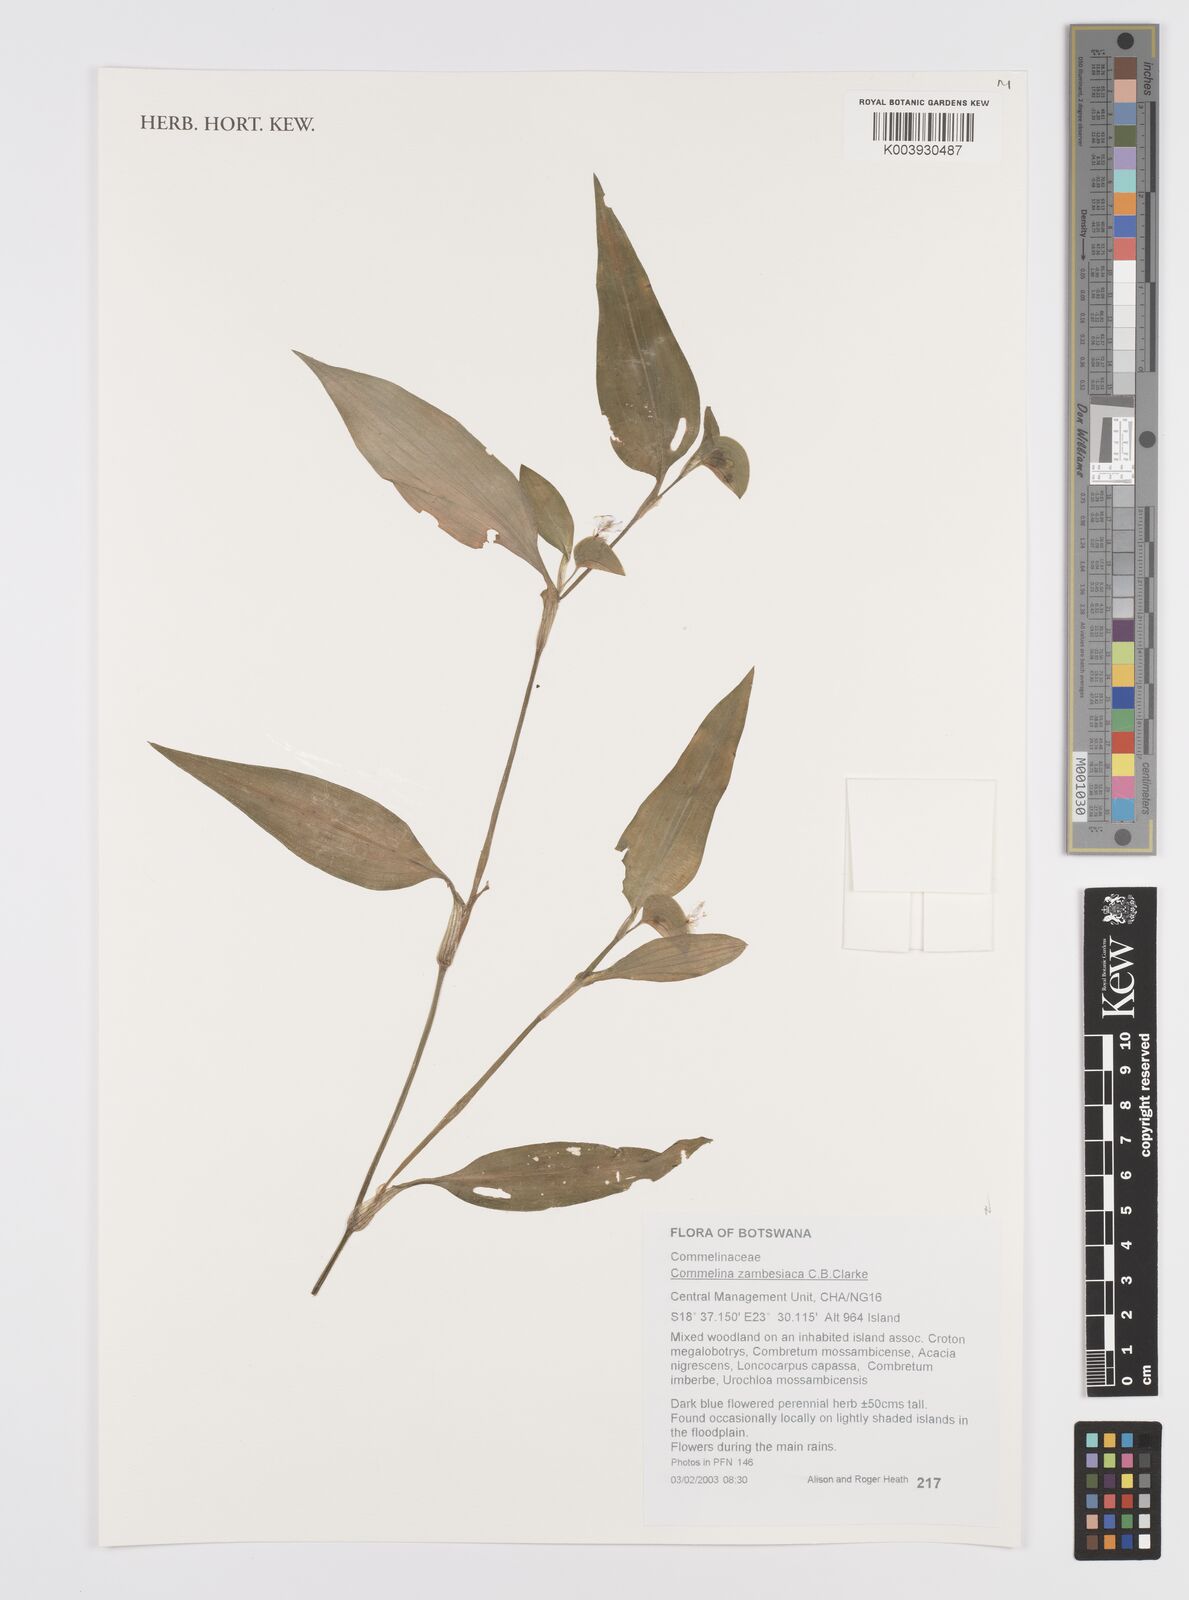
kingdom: Plantae
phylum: Tracheophyta
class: Liliopsida
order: Commelinales
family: Commelinaceae
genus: Commelina
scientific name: Commelina zambesica
